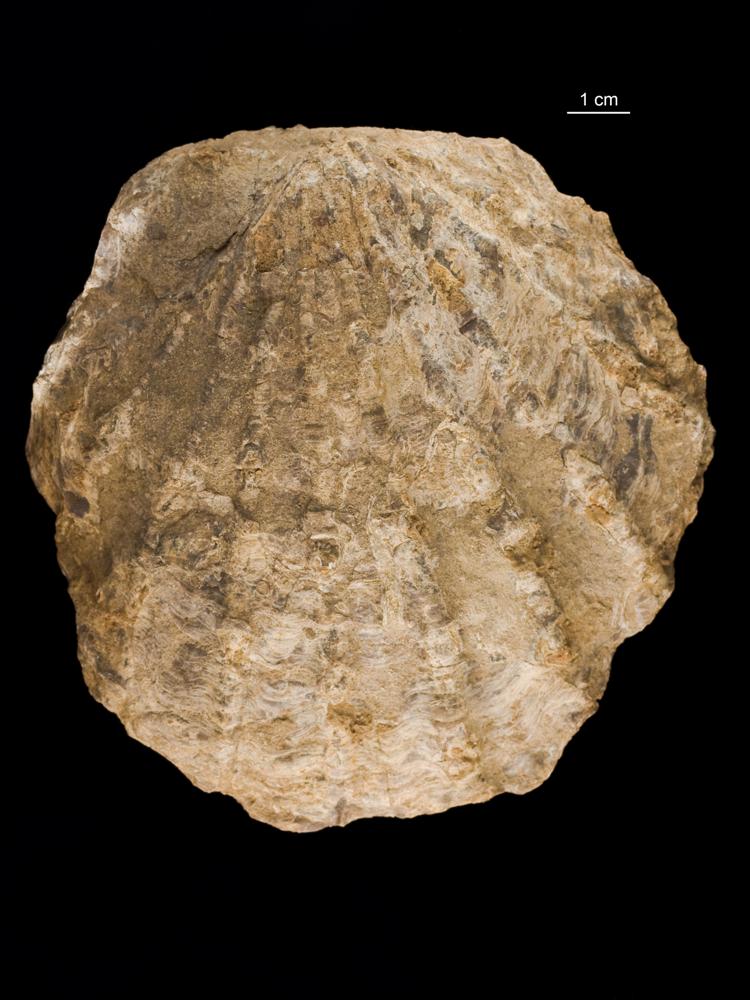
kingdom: Animalia
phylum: Mollusca
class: Bivalvia
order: Limida
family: Limidae
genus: Ctenostreon
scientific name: Ctenostreon pectiniformis
